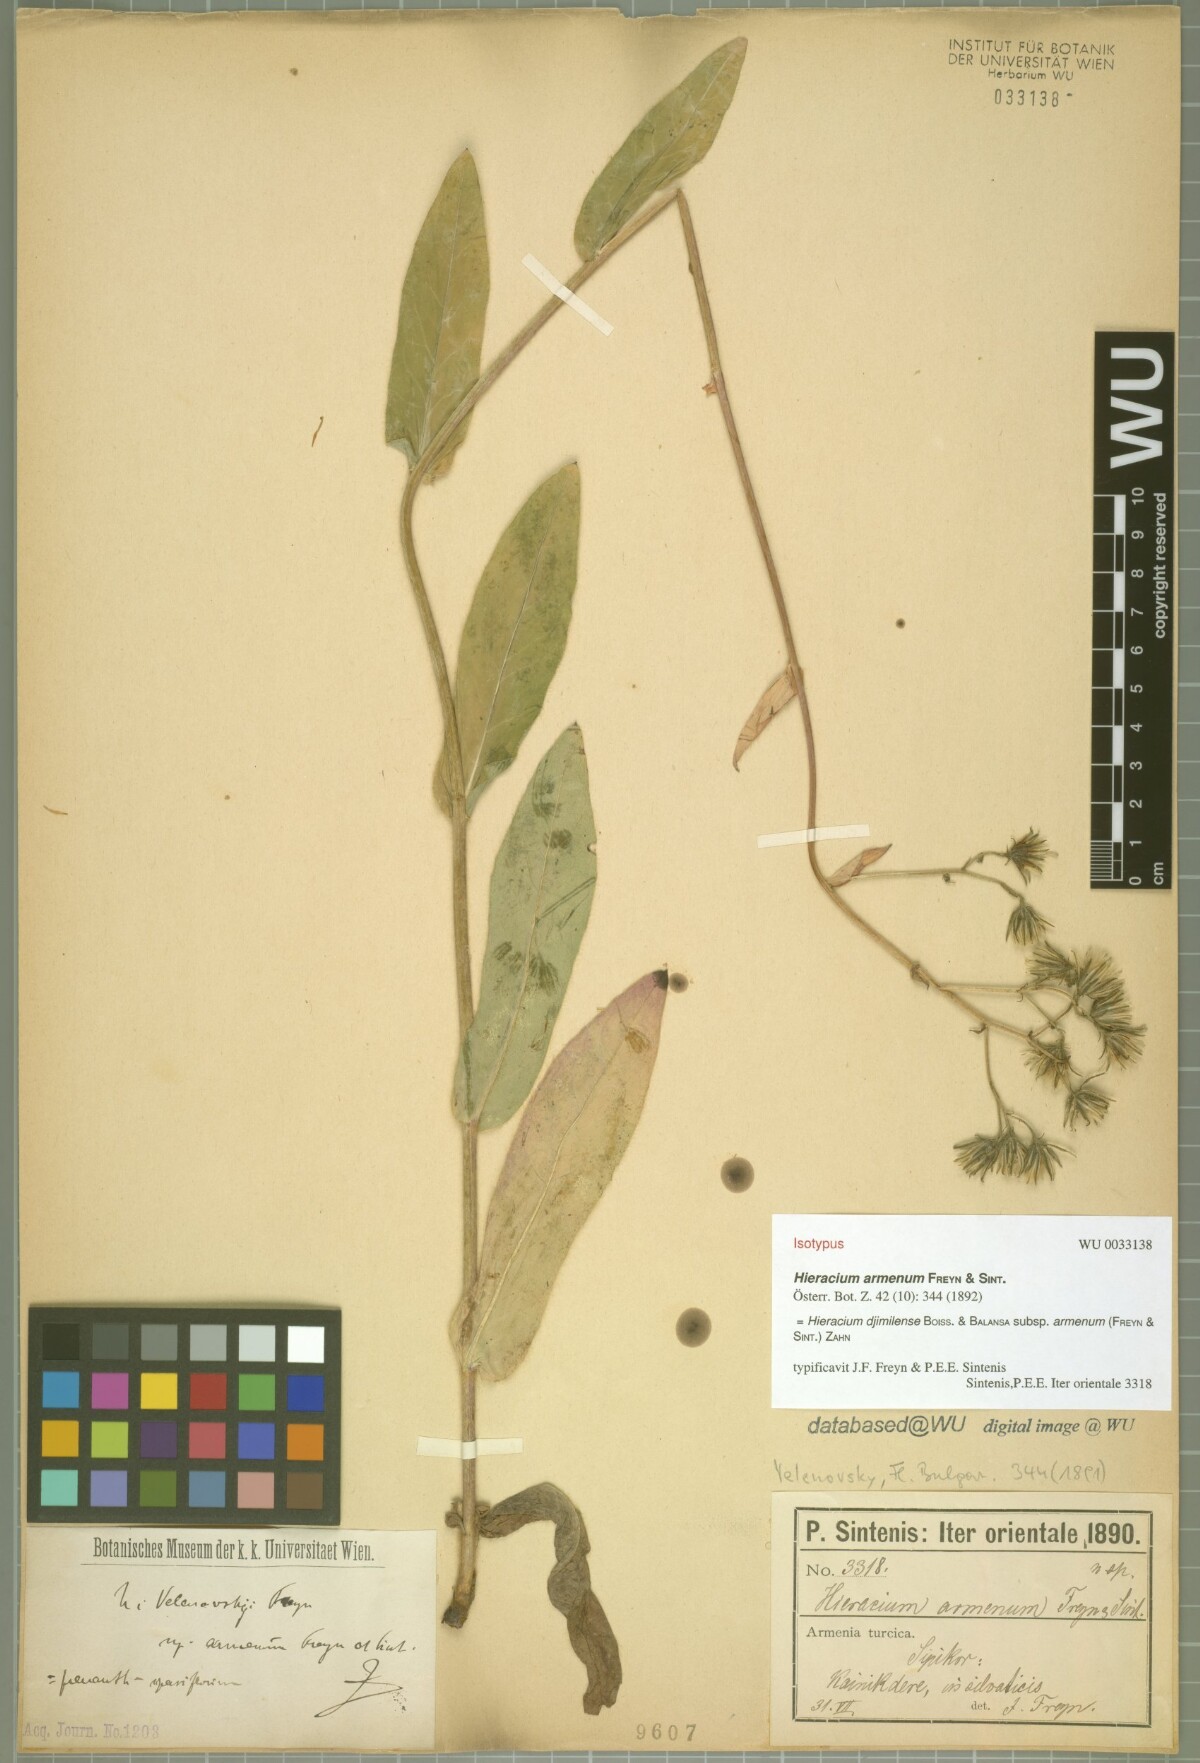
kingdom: Plantae
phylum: Tracheophyta
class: Magnoliopsida
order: Asterales
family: Asteraceae
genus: Hieracium
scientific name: Hieracium microtum
